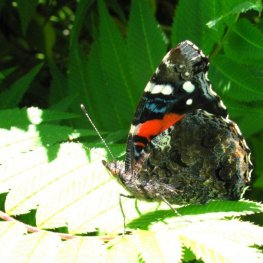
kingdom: Animalia
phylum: Arthropoda
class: Insecta
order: Lepidoptera
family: Nymphalidae
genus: Vanessa
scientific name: Vanessa atalanta
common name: Red Admiral
